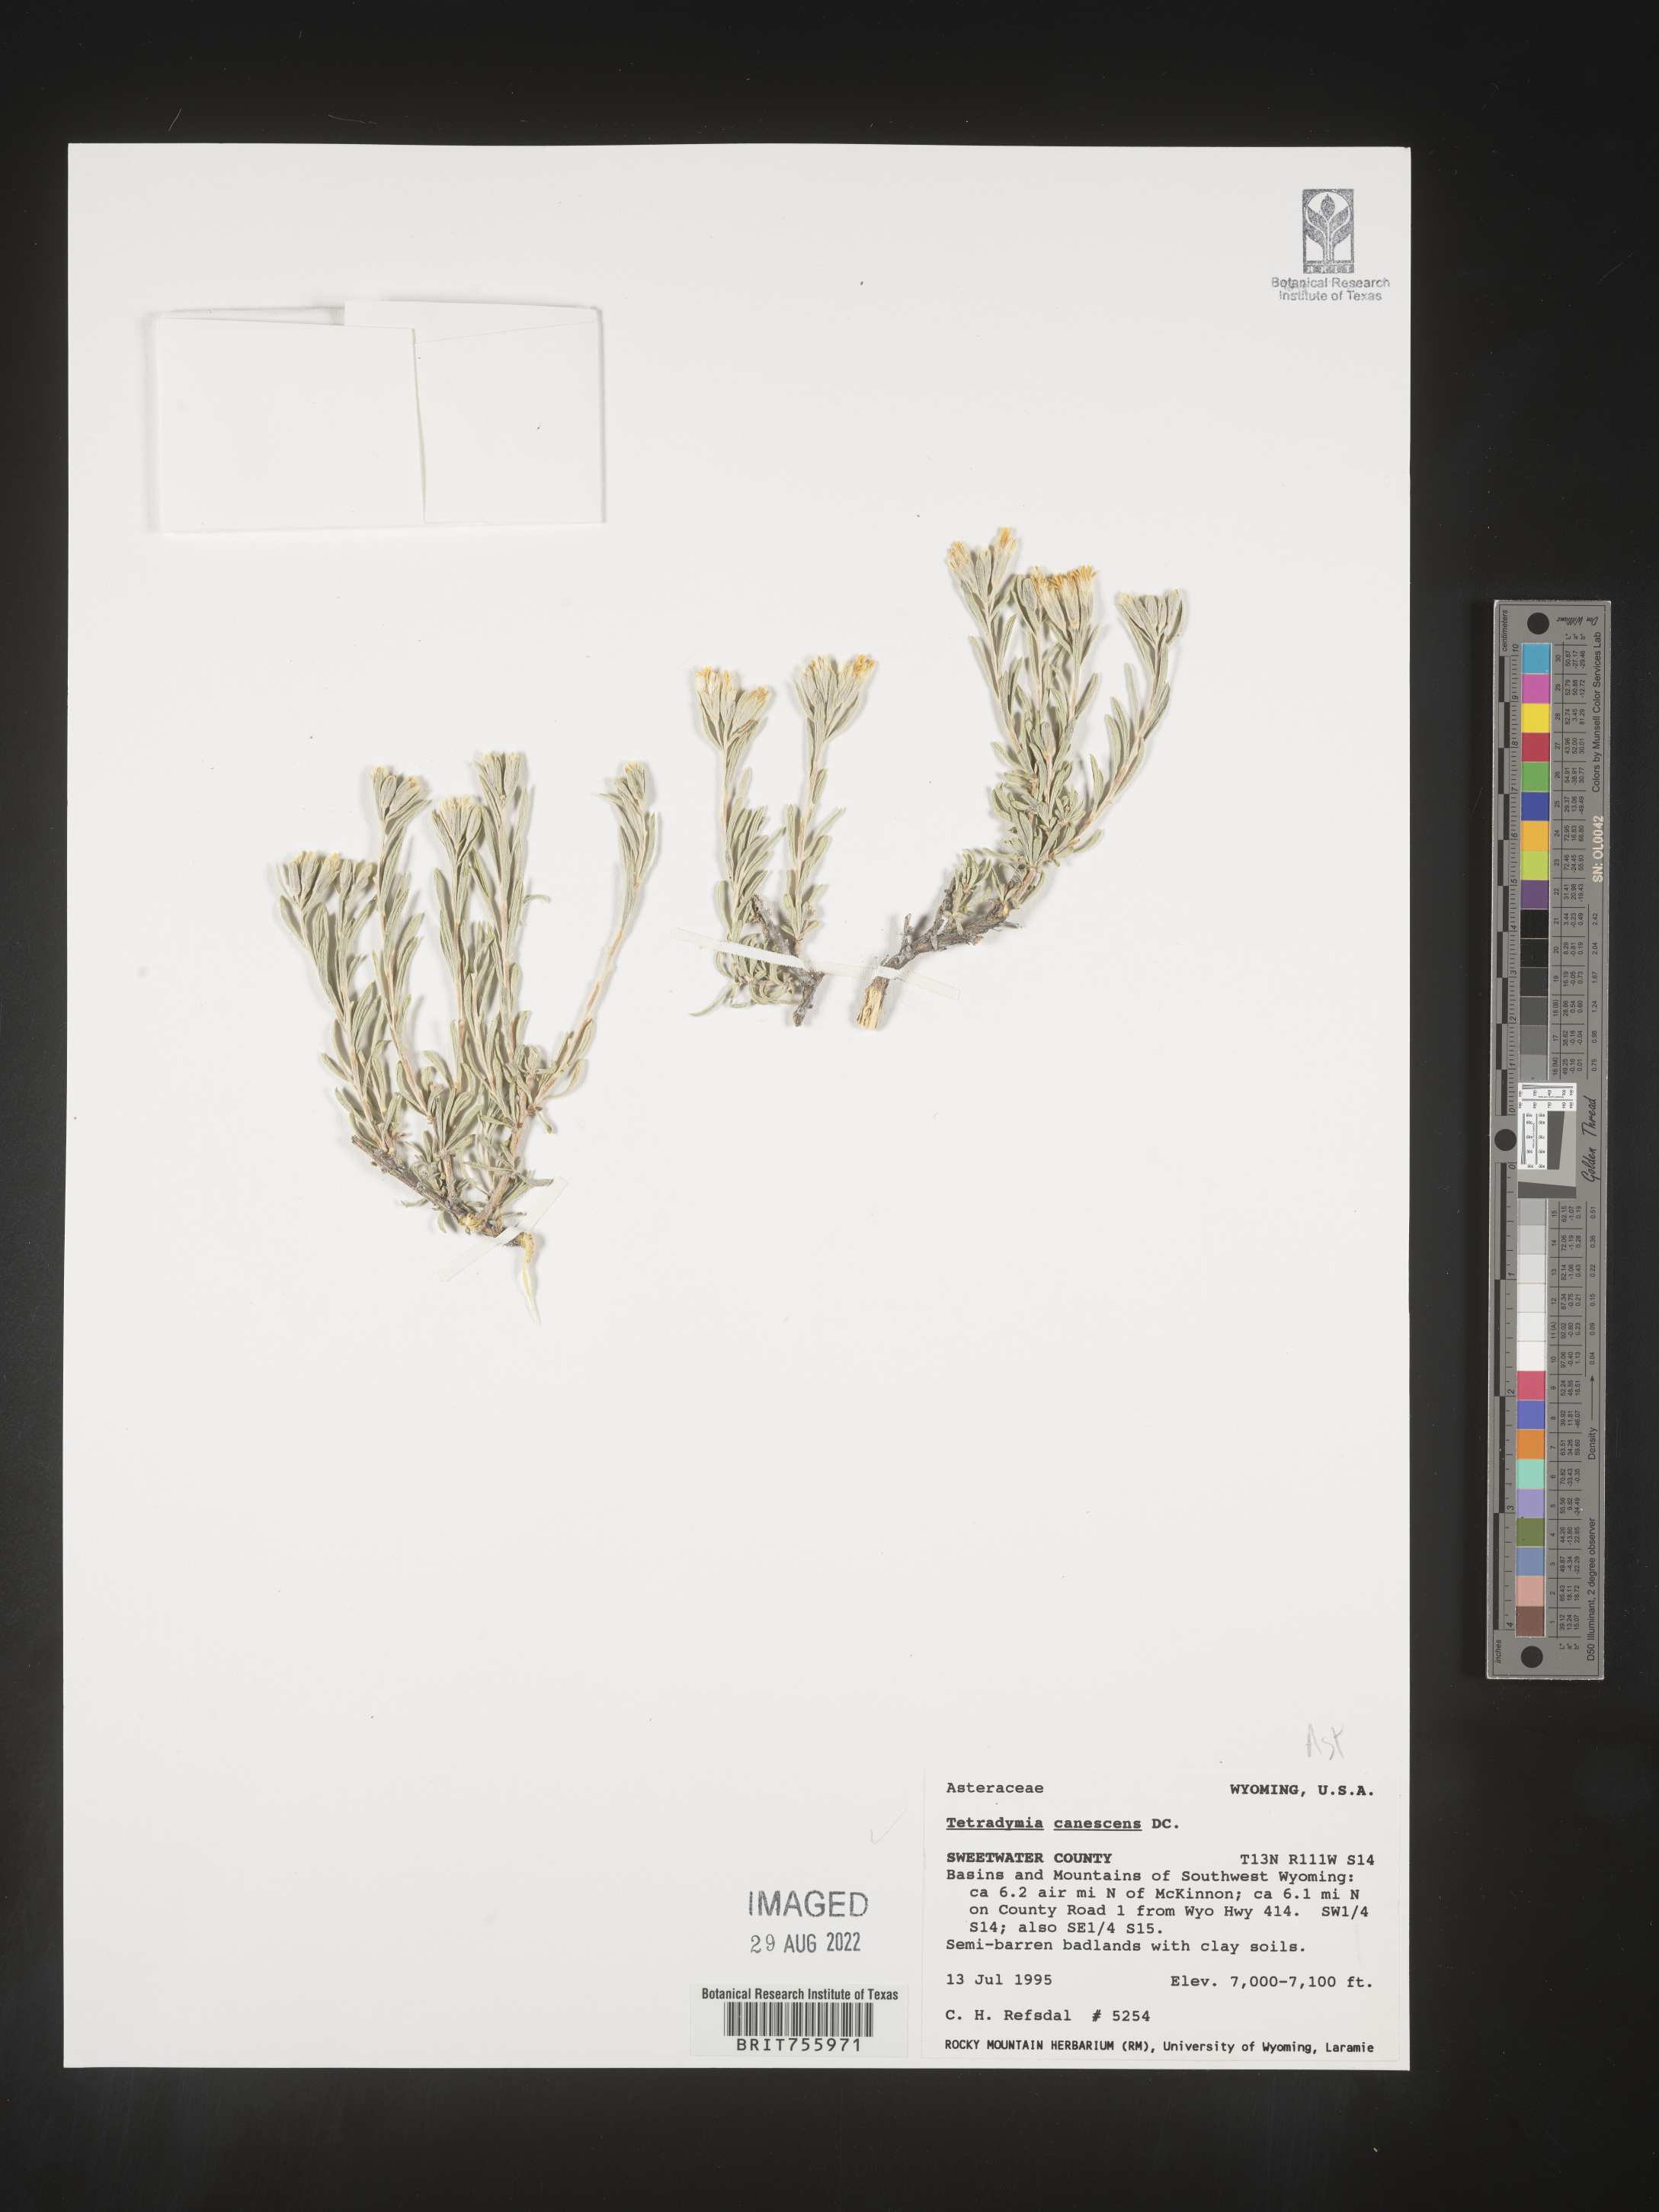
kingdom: Plantae
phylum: Tracheophyta
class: Magnoliopsida
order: Asterales
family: Asteraceae
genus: Tetradymia
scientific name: Tetradymia canescens
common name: Spineless horsebrush
